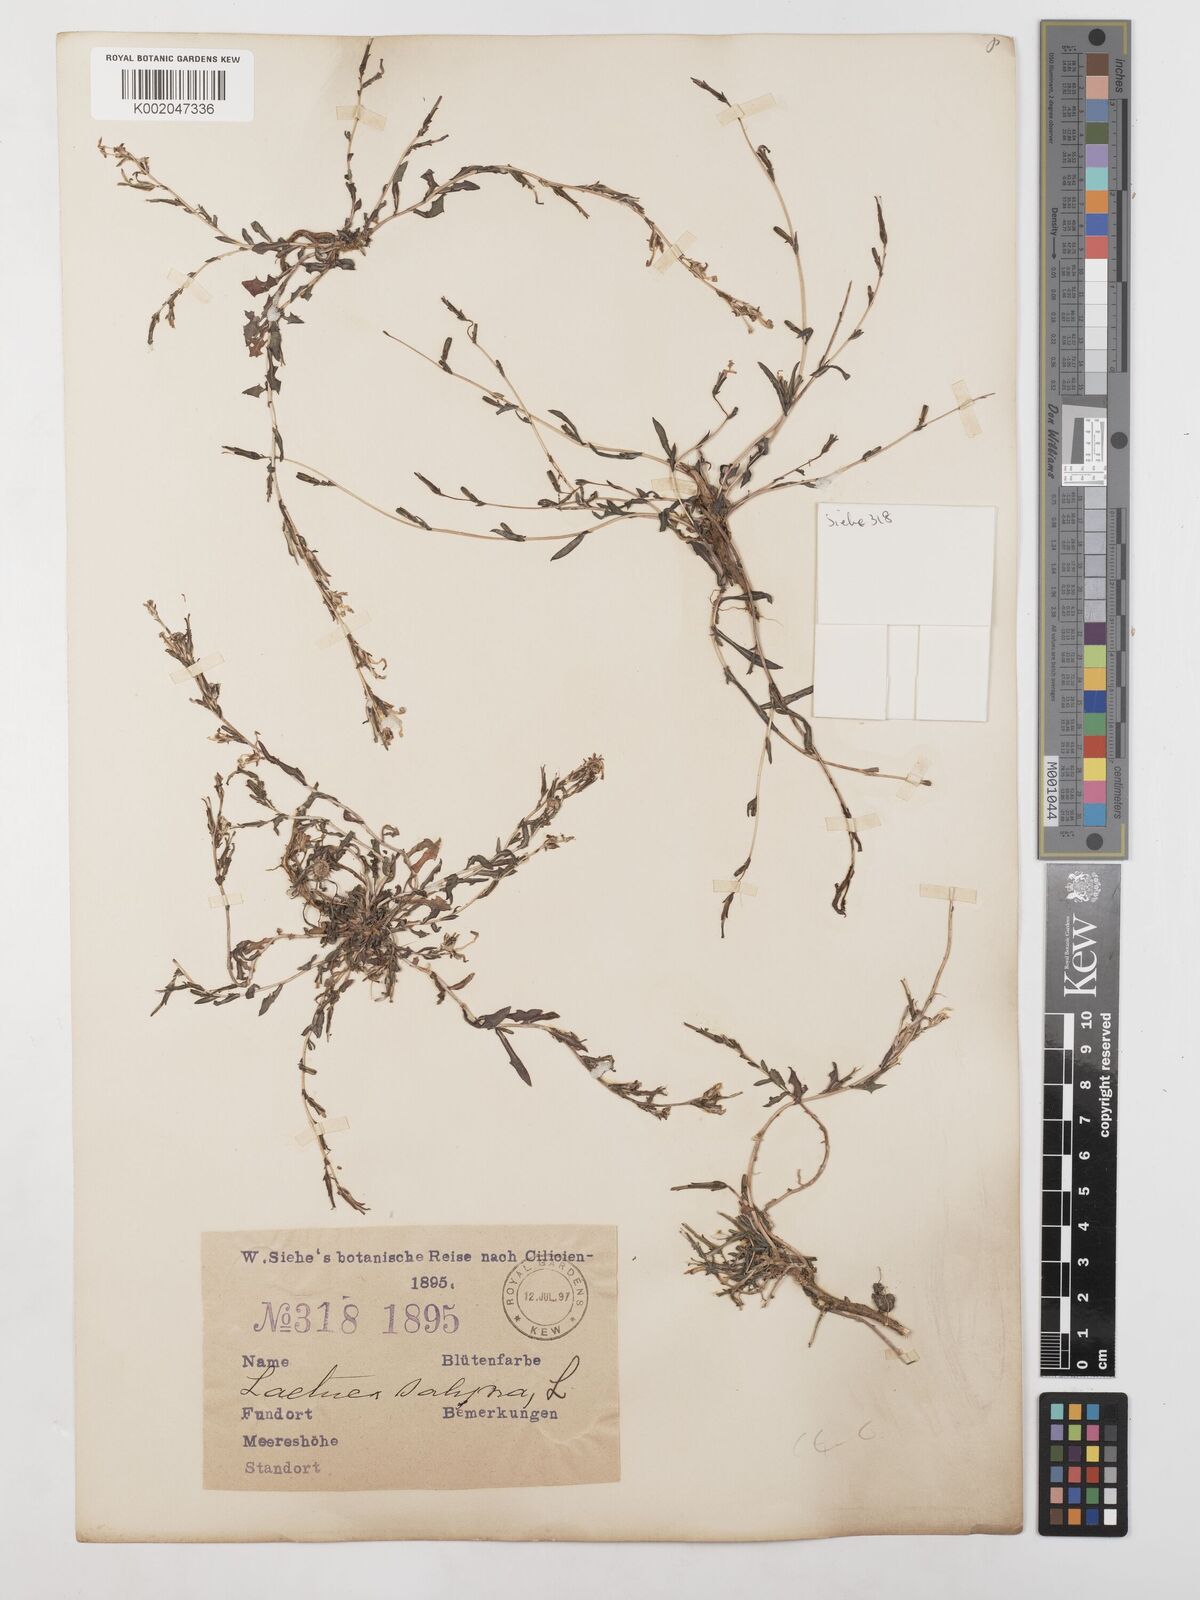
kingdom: Plantae
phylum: Tracheophyta
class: Magnoliopsida
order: Asterales
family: Asteraceae
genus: Lactuca
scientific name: Lactuca saligna
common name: Wild lettuce
